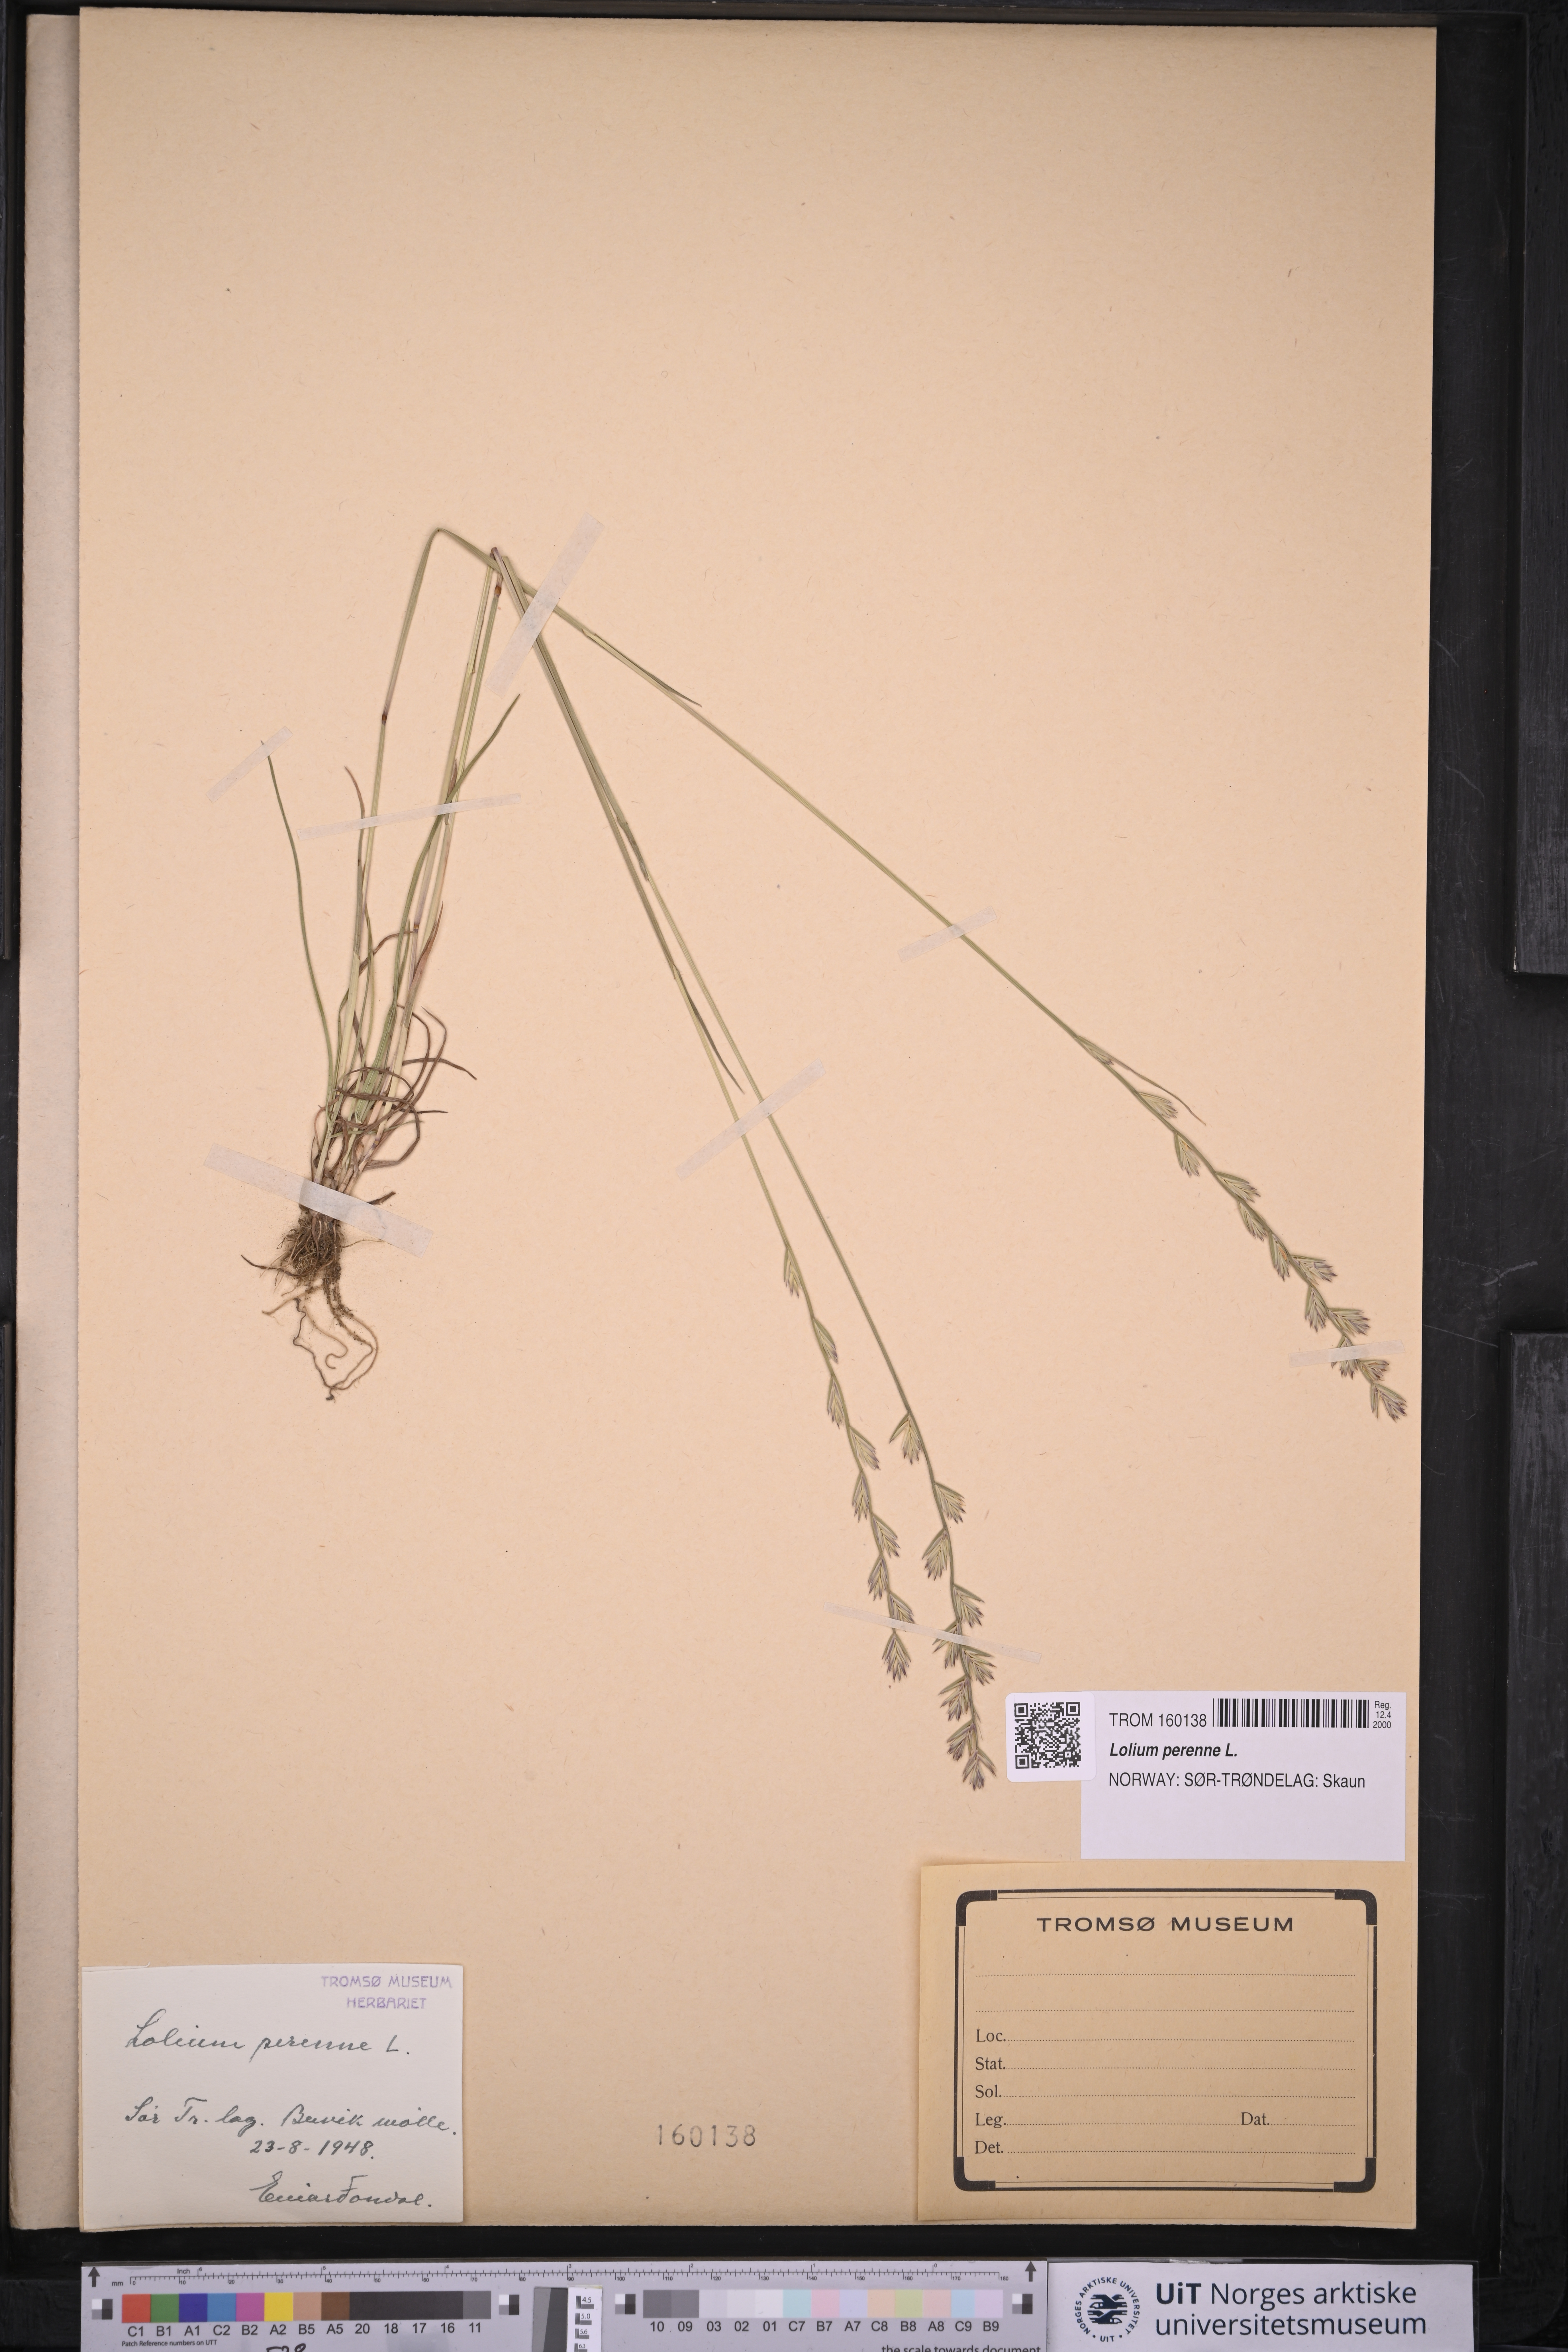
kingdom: Plantae
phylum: Tracheophyta
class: Liliopsida
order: Poales
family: Poaceae
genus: Lolium
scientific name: Lolium perenne
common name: Perennial ryegrass
